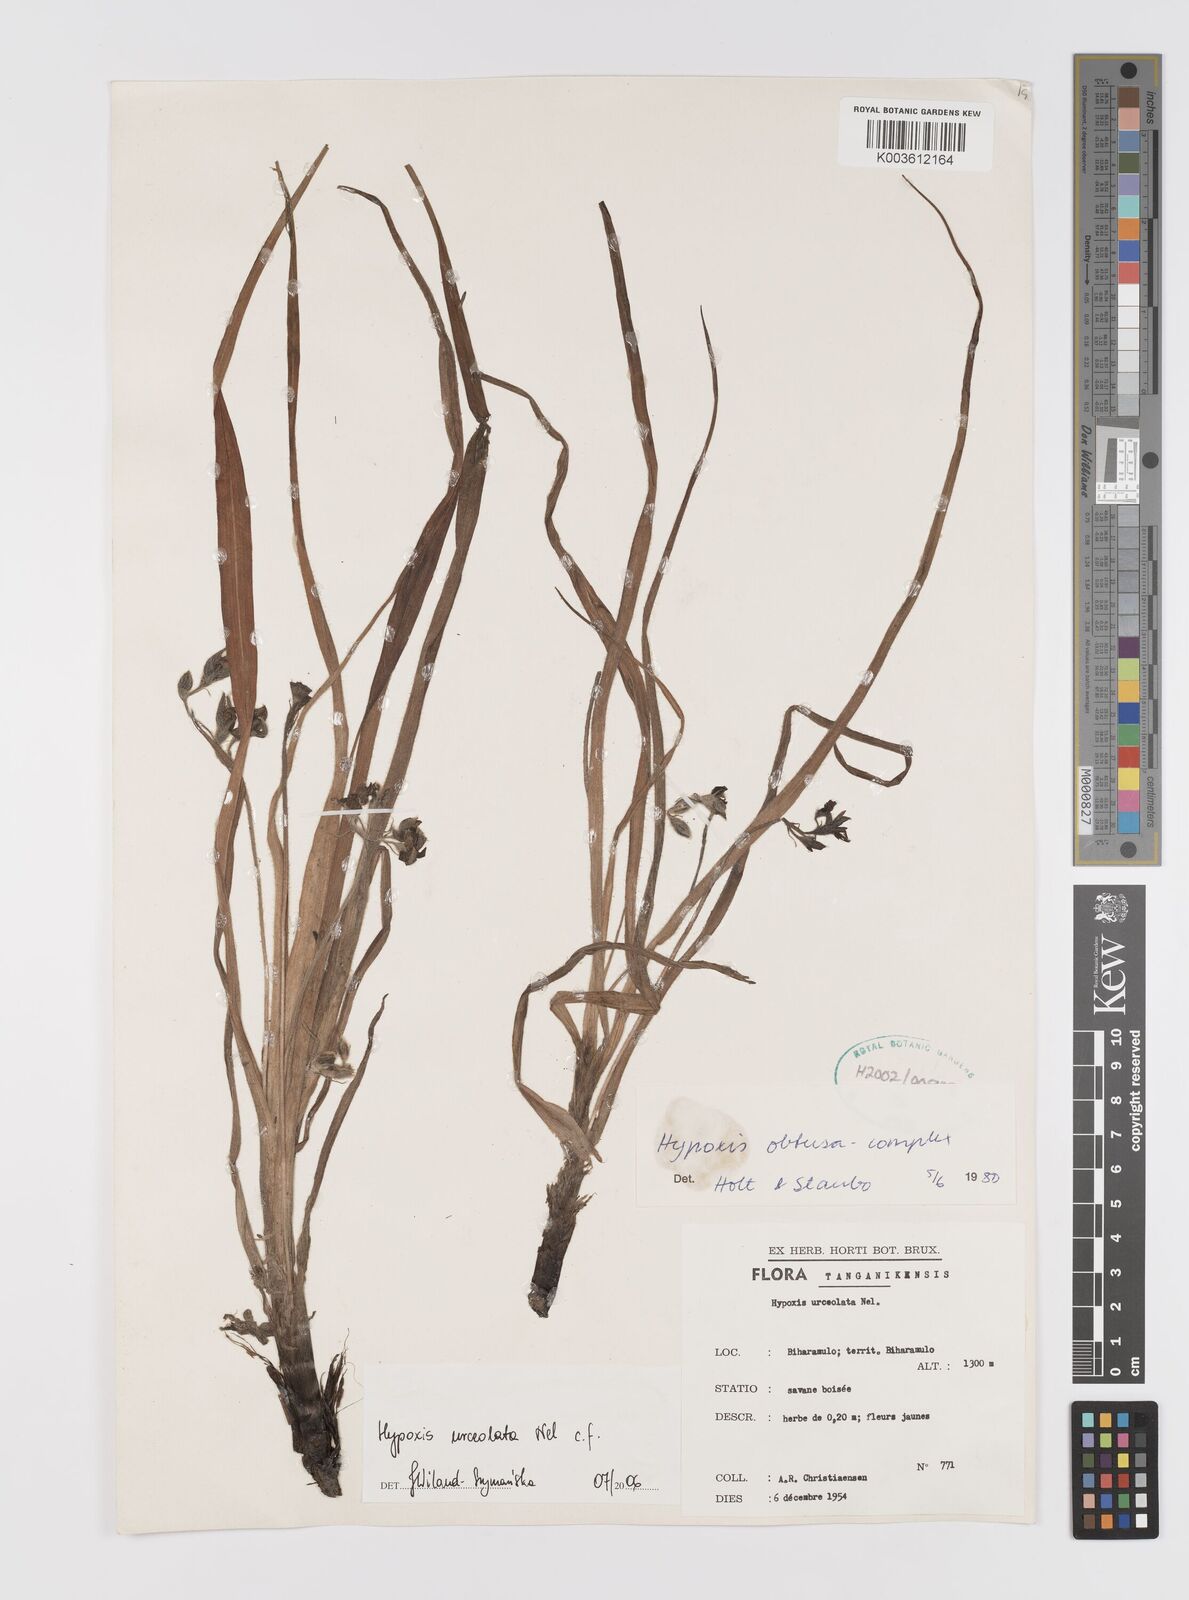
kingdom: Plantae
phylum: Tracheophyta
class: Liliopsida
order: Asparagales
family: Hypoxidaceae
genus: Hypoxis
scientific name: Hypoxis urceolata
